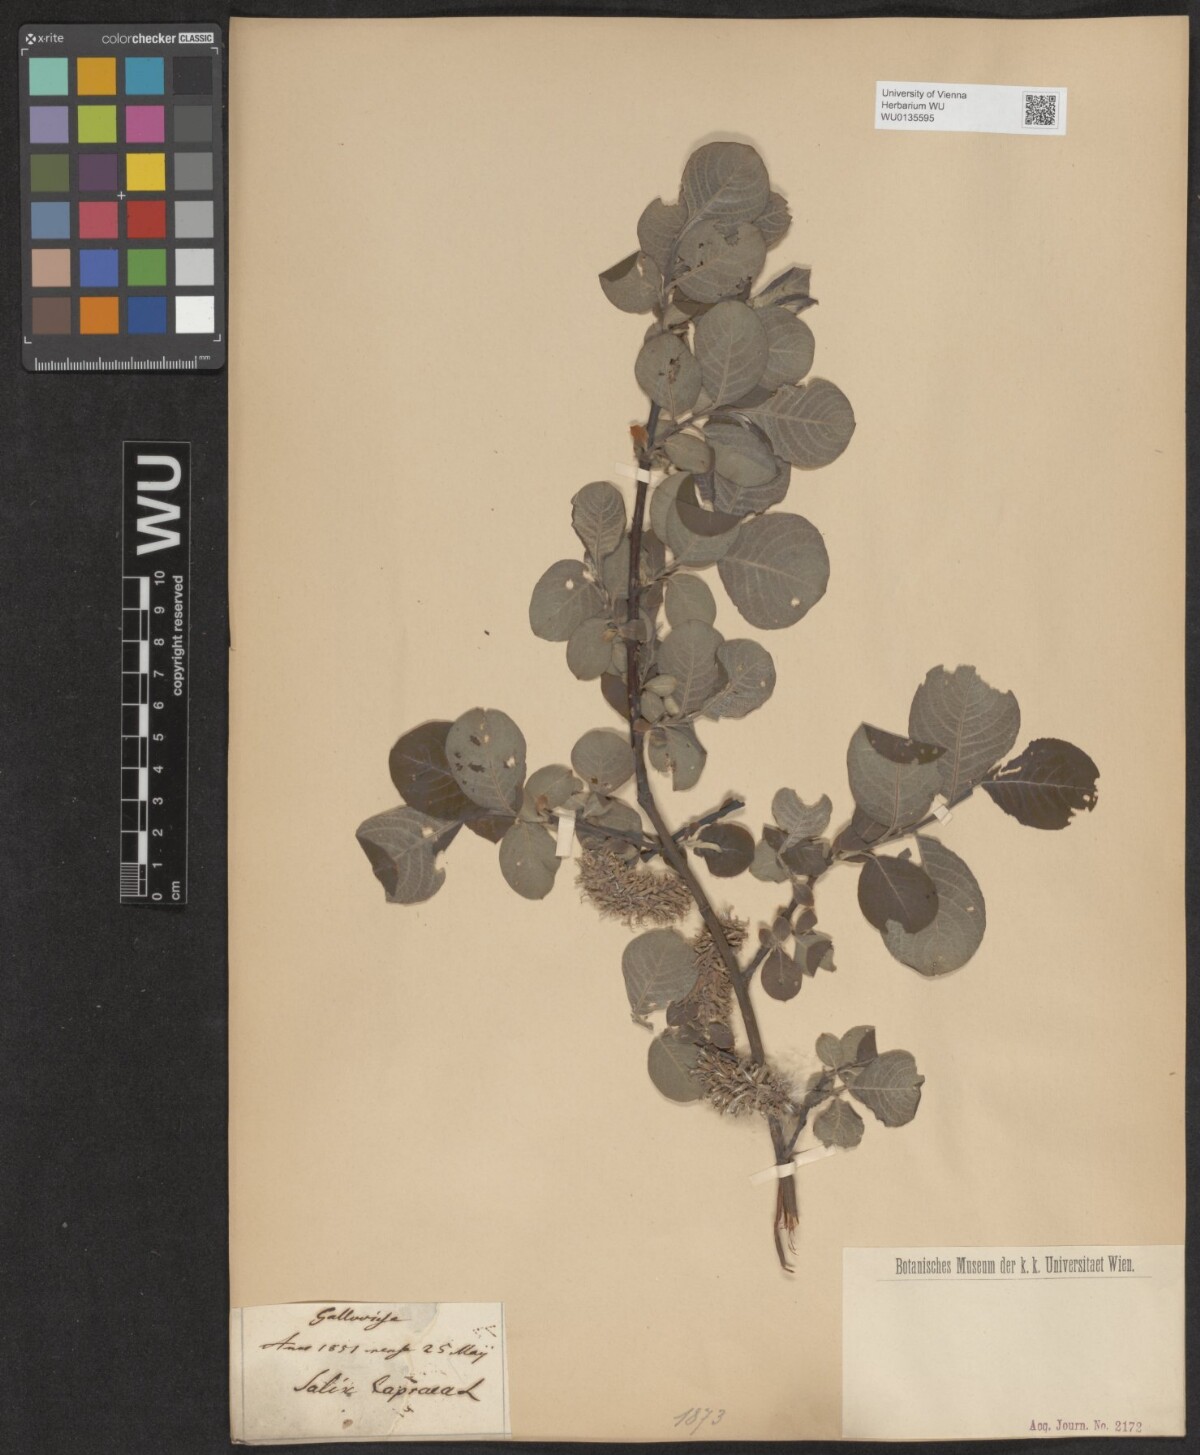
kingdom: Plantae
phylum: Tracheophyta
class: Magnoliopsida
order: Malpighiales
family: Salicaceae
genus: Salix
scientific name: Salix caprea
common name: Goat willow
